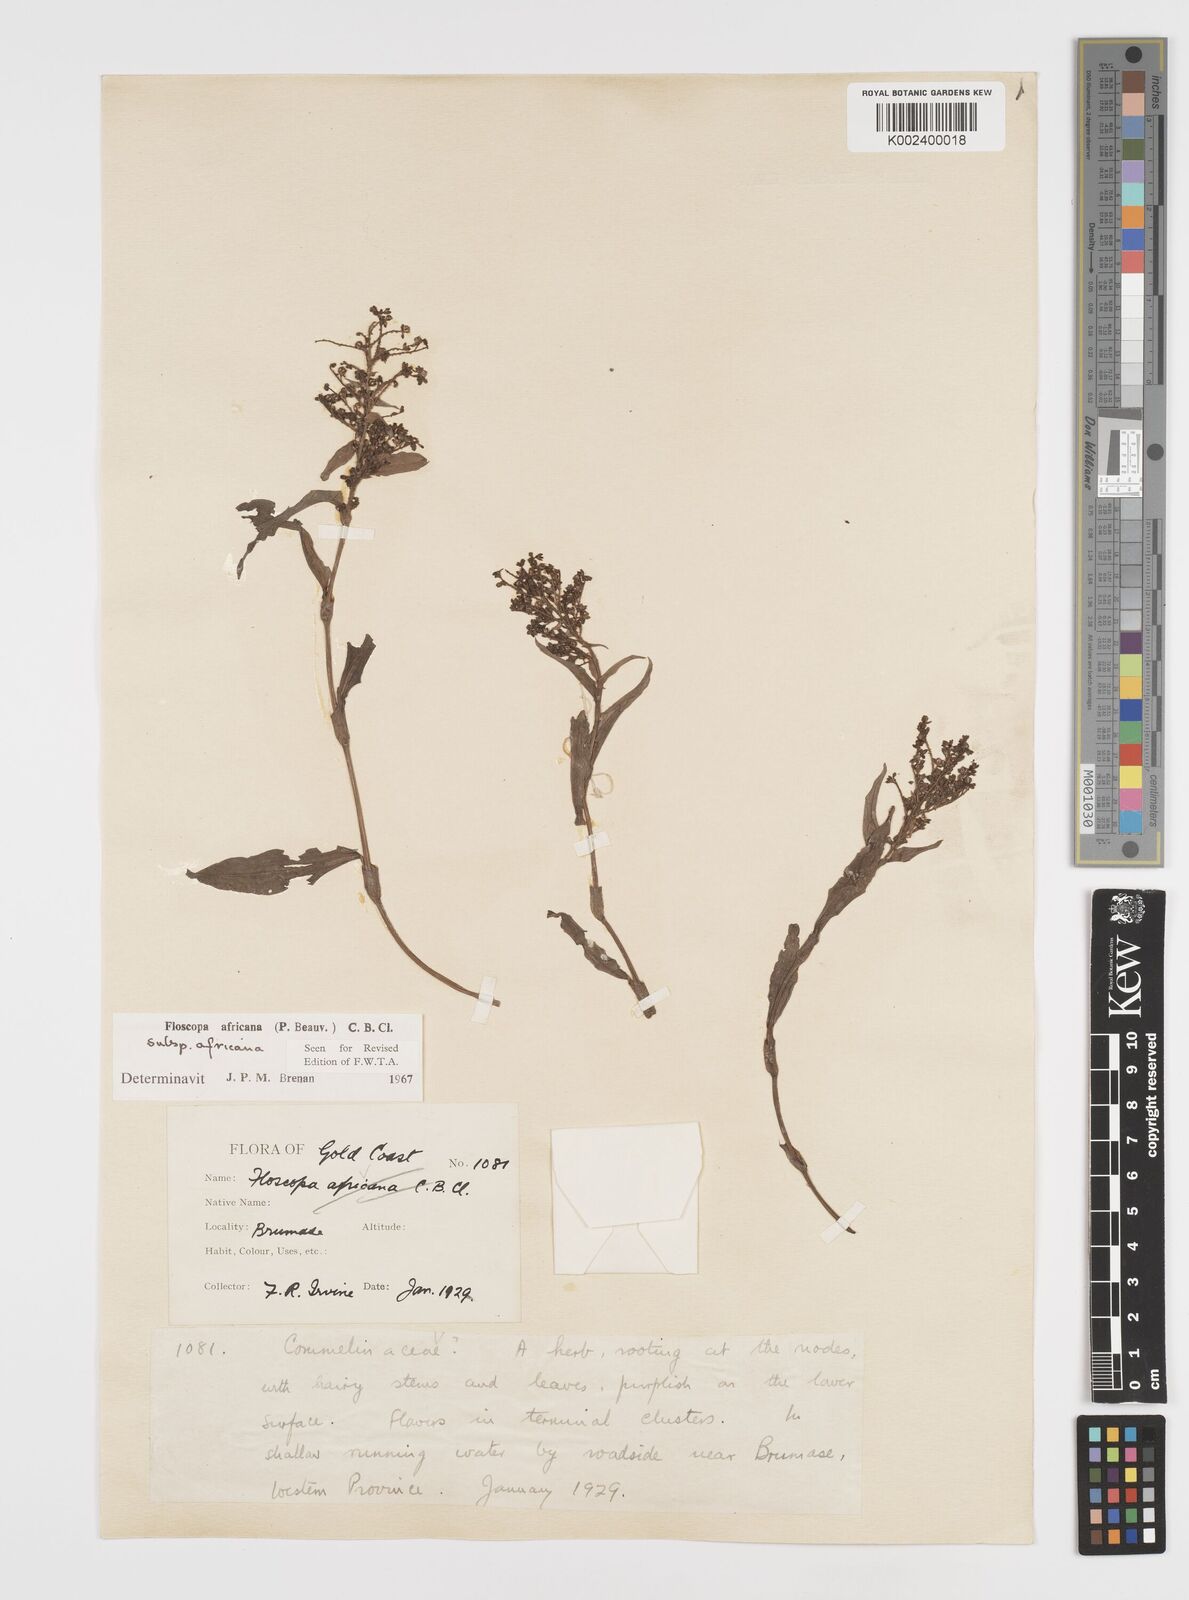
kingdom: Plantae
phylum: Tracheophyta
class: Liliopsida
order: Commelinales
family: Commelinaceae
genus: Floscopa
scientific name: Floscopa africana
